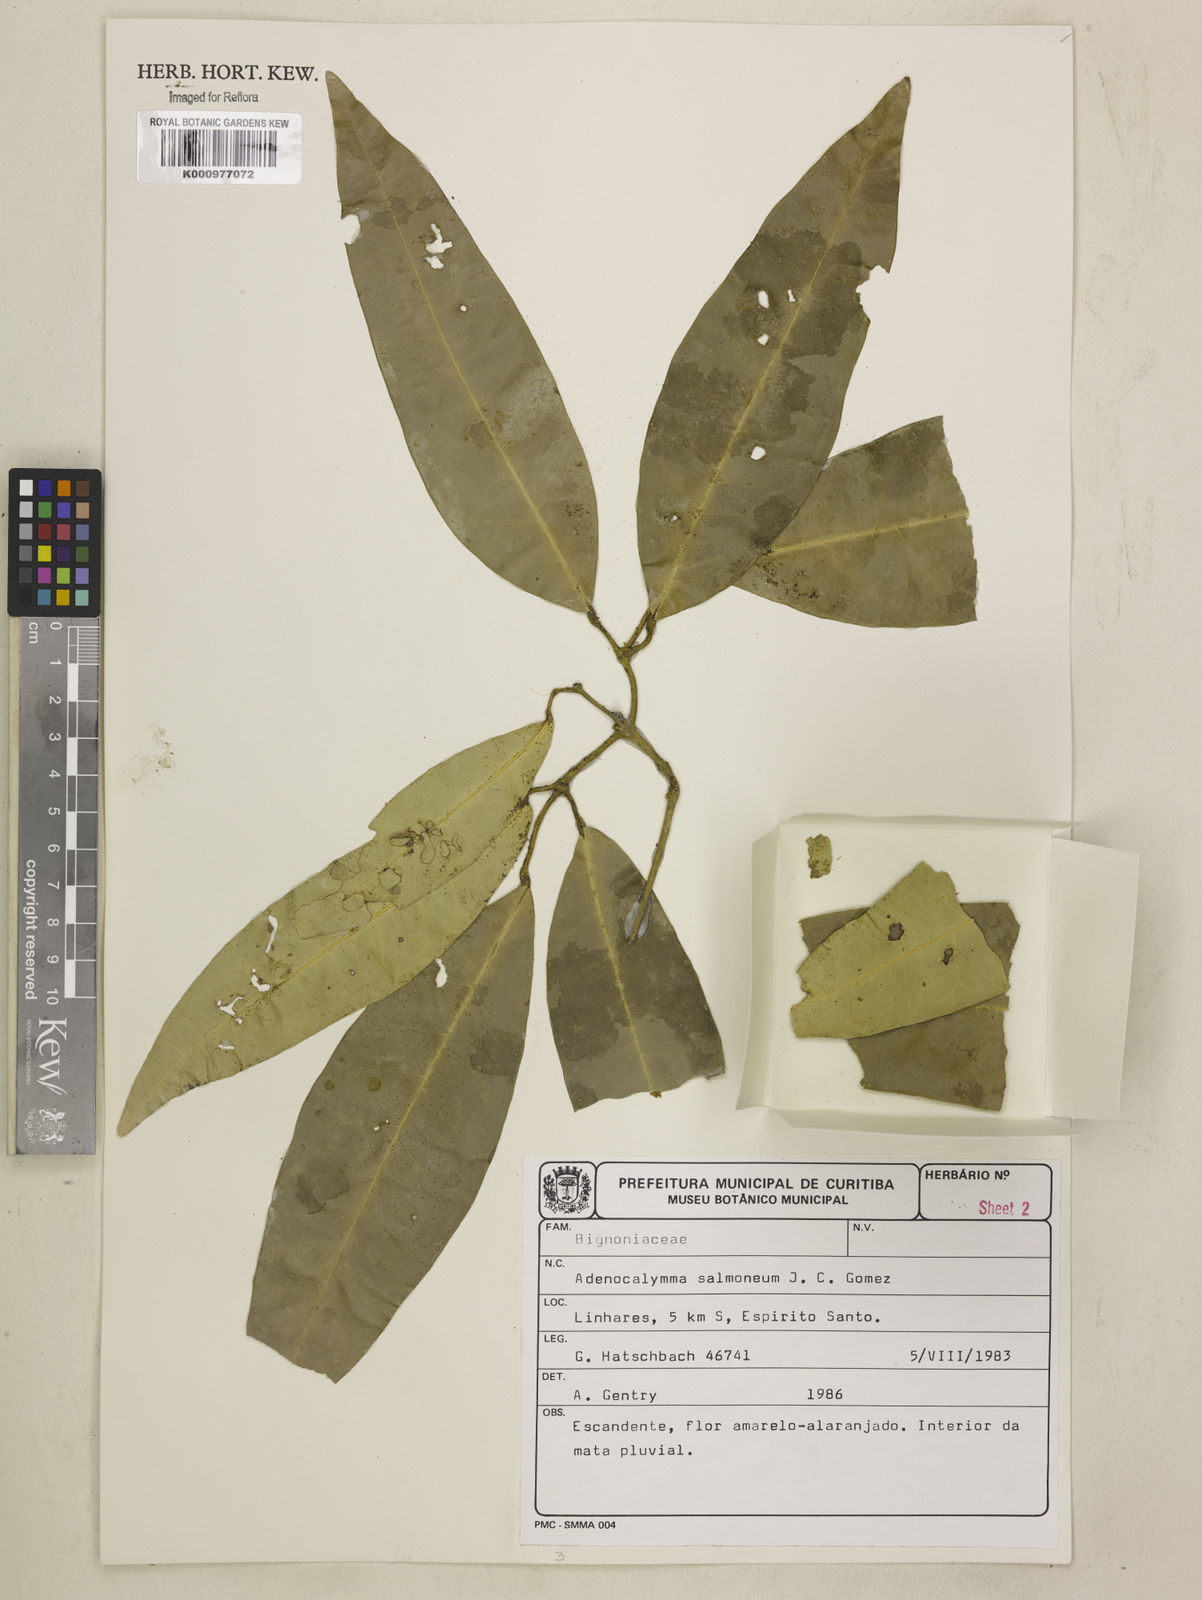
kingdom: Plantae
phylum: Tracheophyta
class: Magnoliopsida
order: Lamiales
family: Bignoniaceae
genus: Adenocalymma
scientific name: Adenocalymma salmoneum
